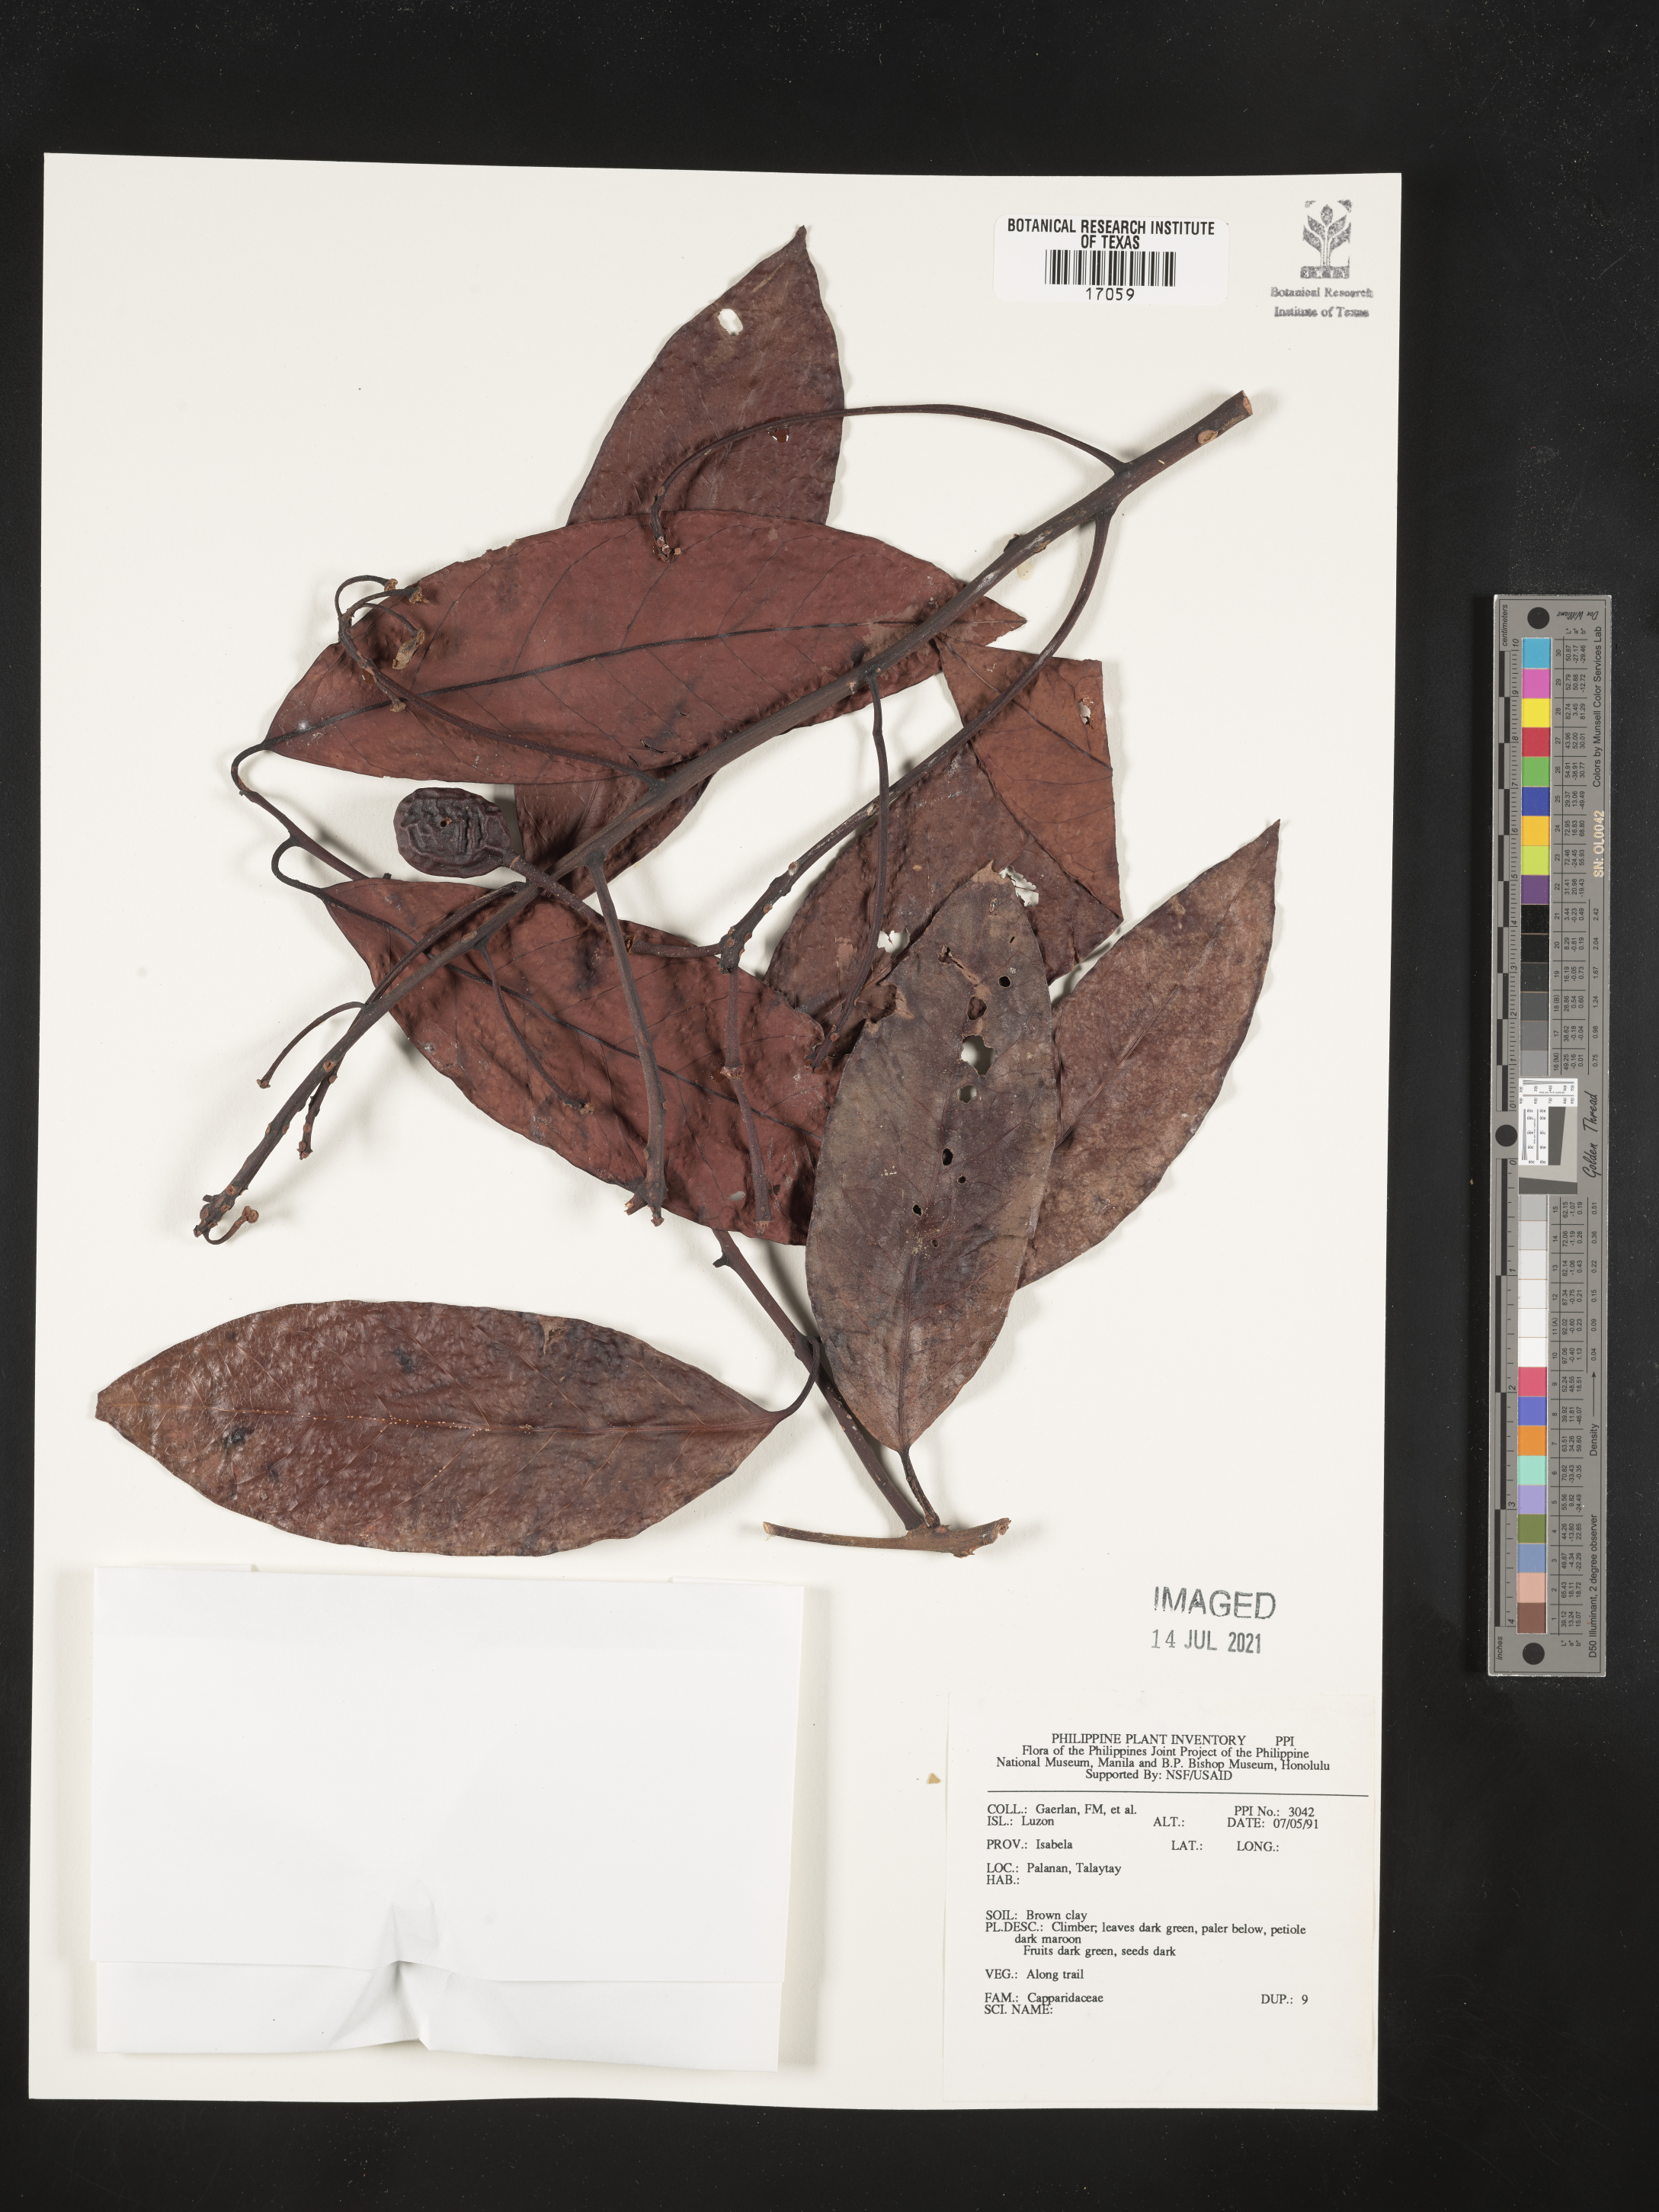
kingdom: Plantae
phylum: Tracheophyta
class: Magnoliopsida
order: Brassicales
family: Capparaceae
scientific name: Capparaceae
